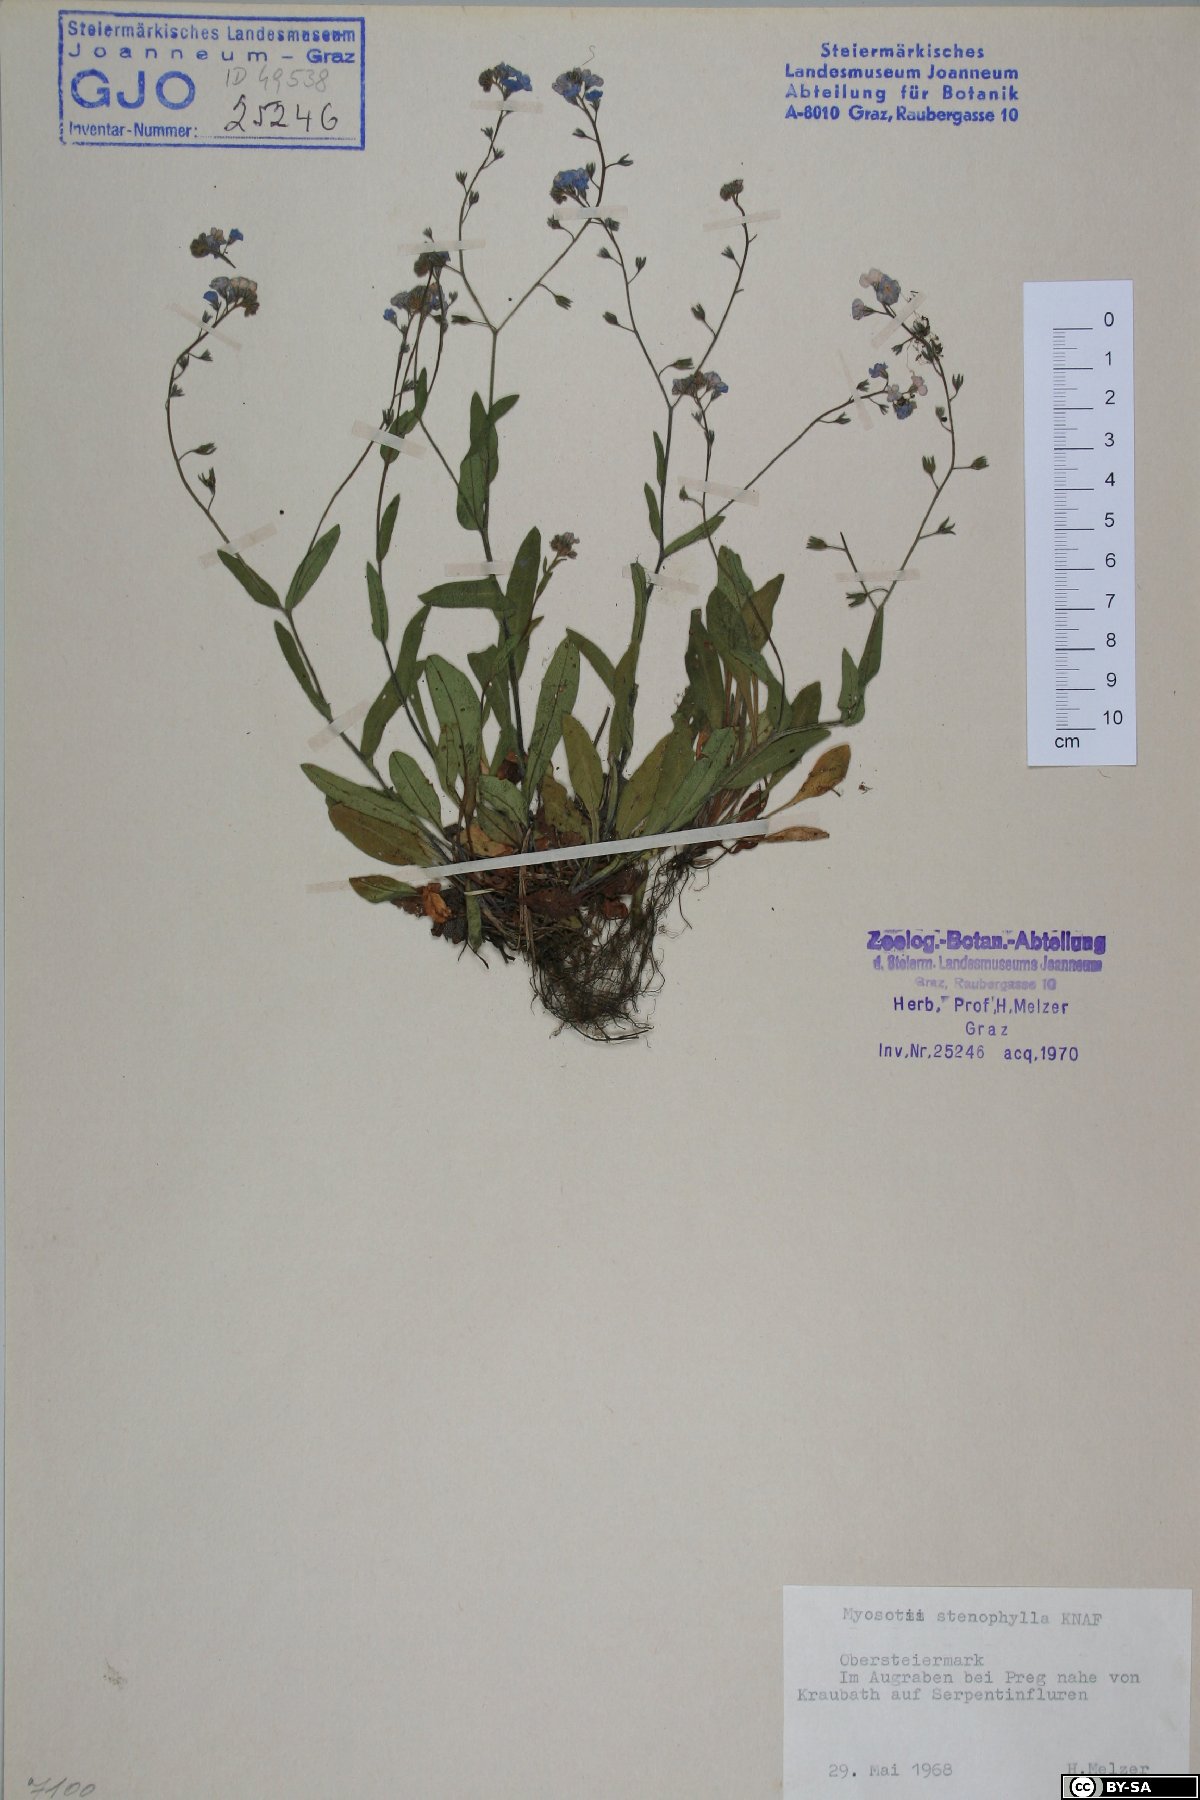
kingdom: Plantae
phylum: Tracheophyta
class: Magnoliopsida
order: Boraginales
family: Boraginaceae
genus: Myosotis
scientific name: Myosotis stenophylla
